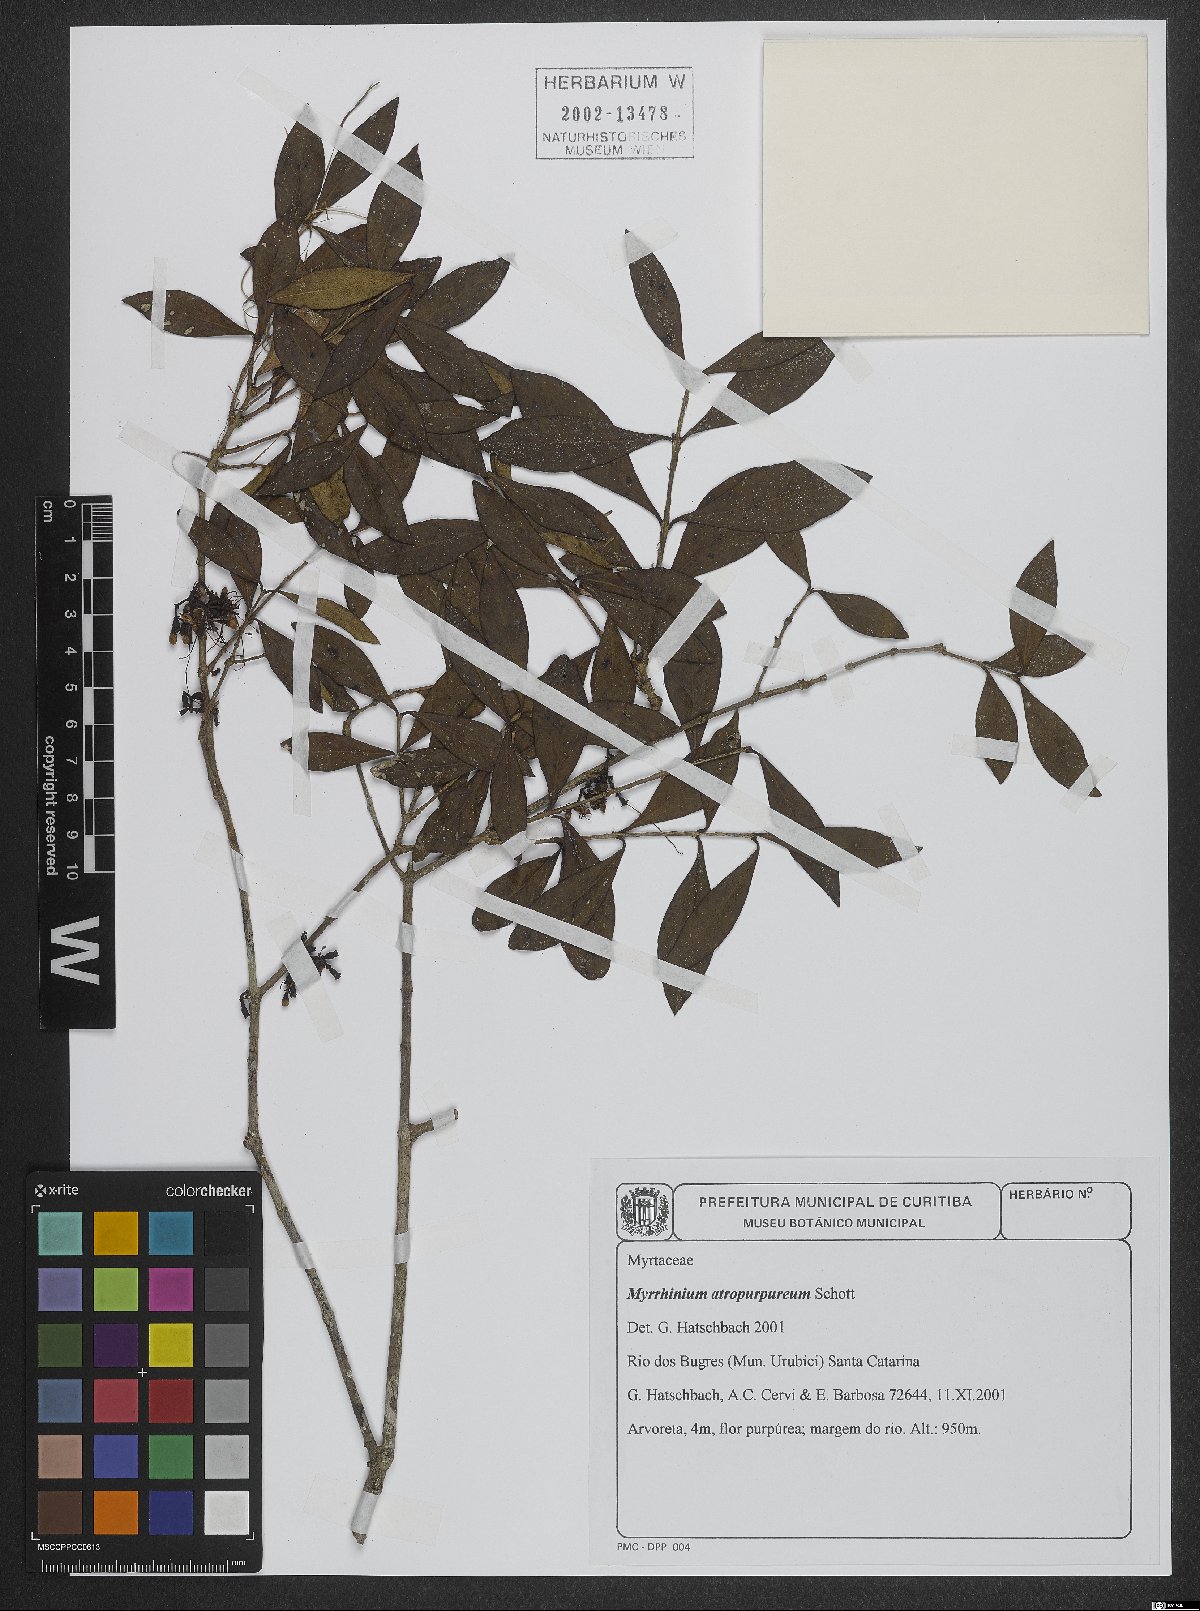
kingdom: Plantae
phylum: Tracheophyta
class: Magnoliopsida
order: Myrtales
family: Myrtaceae
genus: Myrrhinium
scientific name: Myrrhinium atropurpureum
